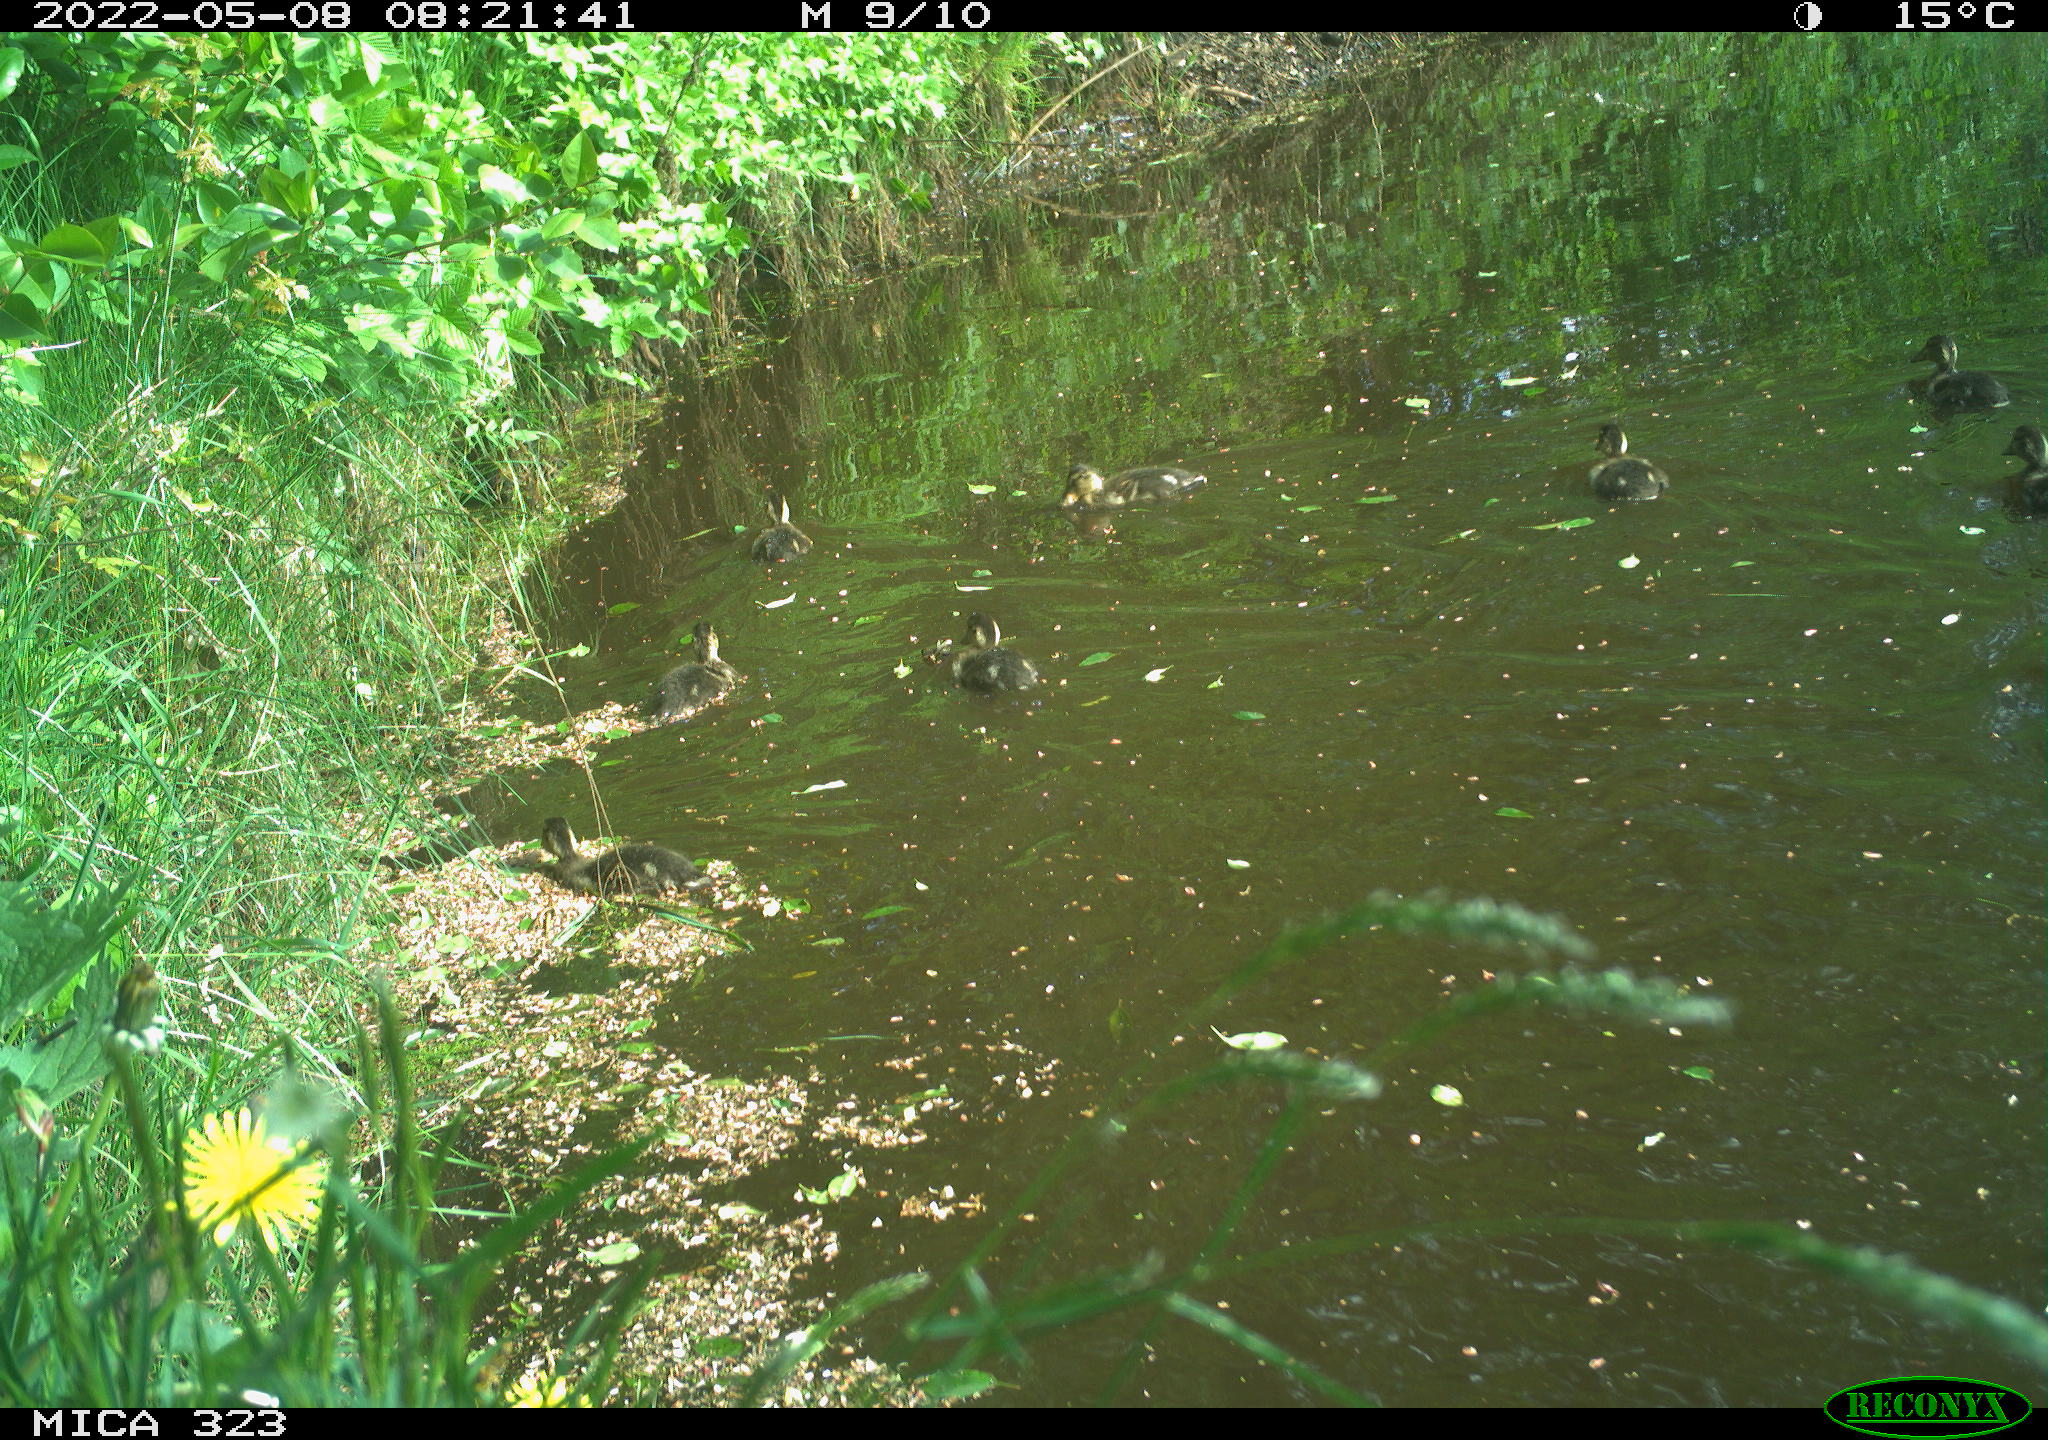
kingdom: Animalia
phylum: Chordata
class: Aves
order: Anseriformes
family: Anatidae
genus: Anas
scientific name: Anas
